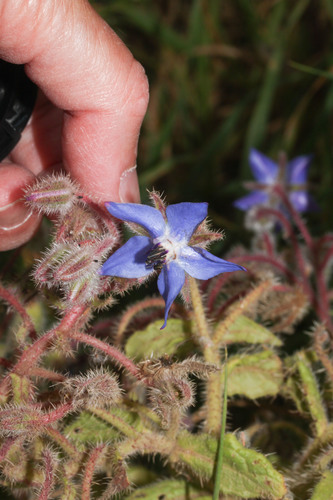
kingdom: Plantae
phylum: Tracheophyta
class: Magnoliopsida
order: Boraginales
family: Boraginaceae
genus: Borago
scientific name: Borago officinalis
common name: Borage
